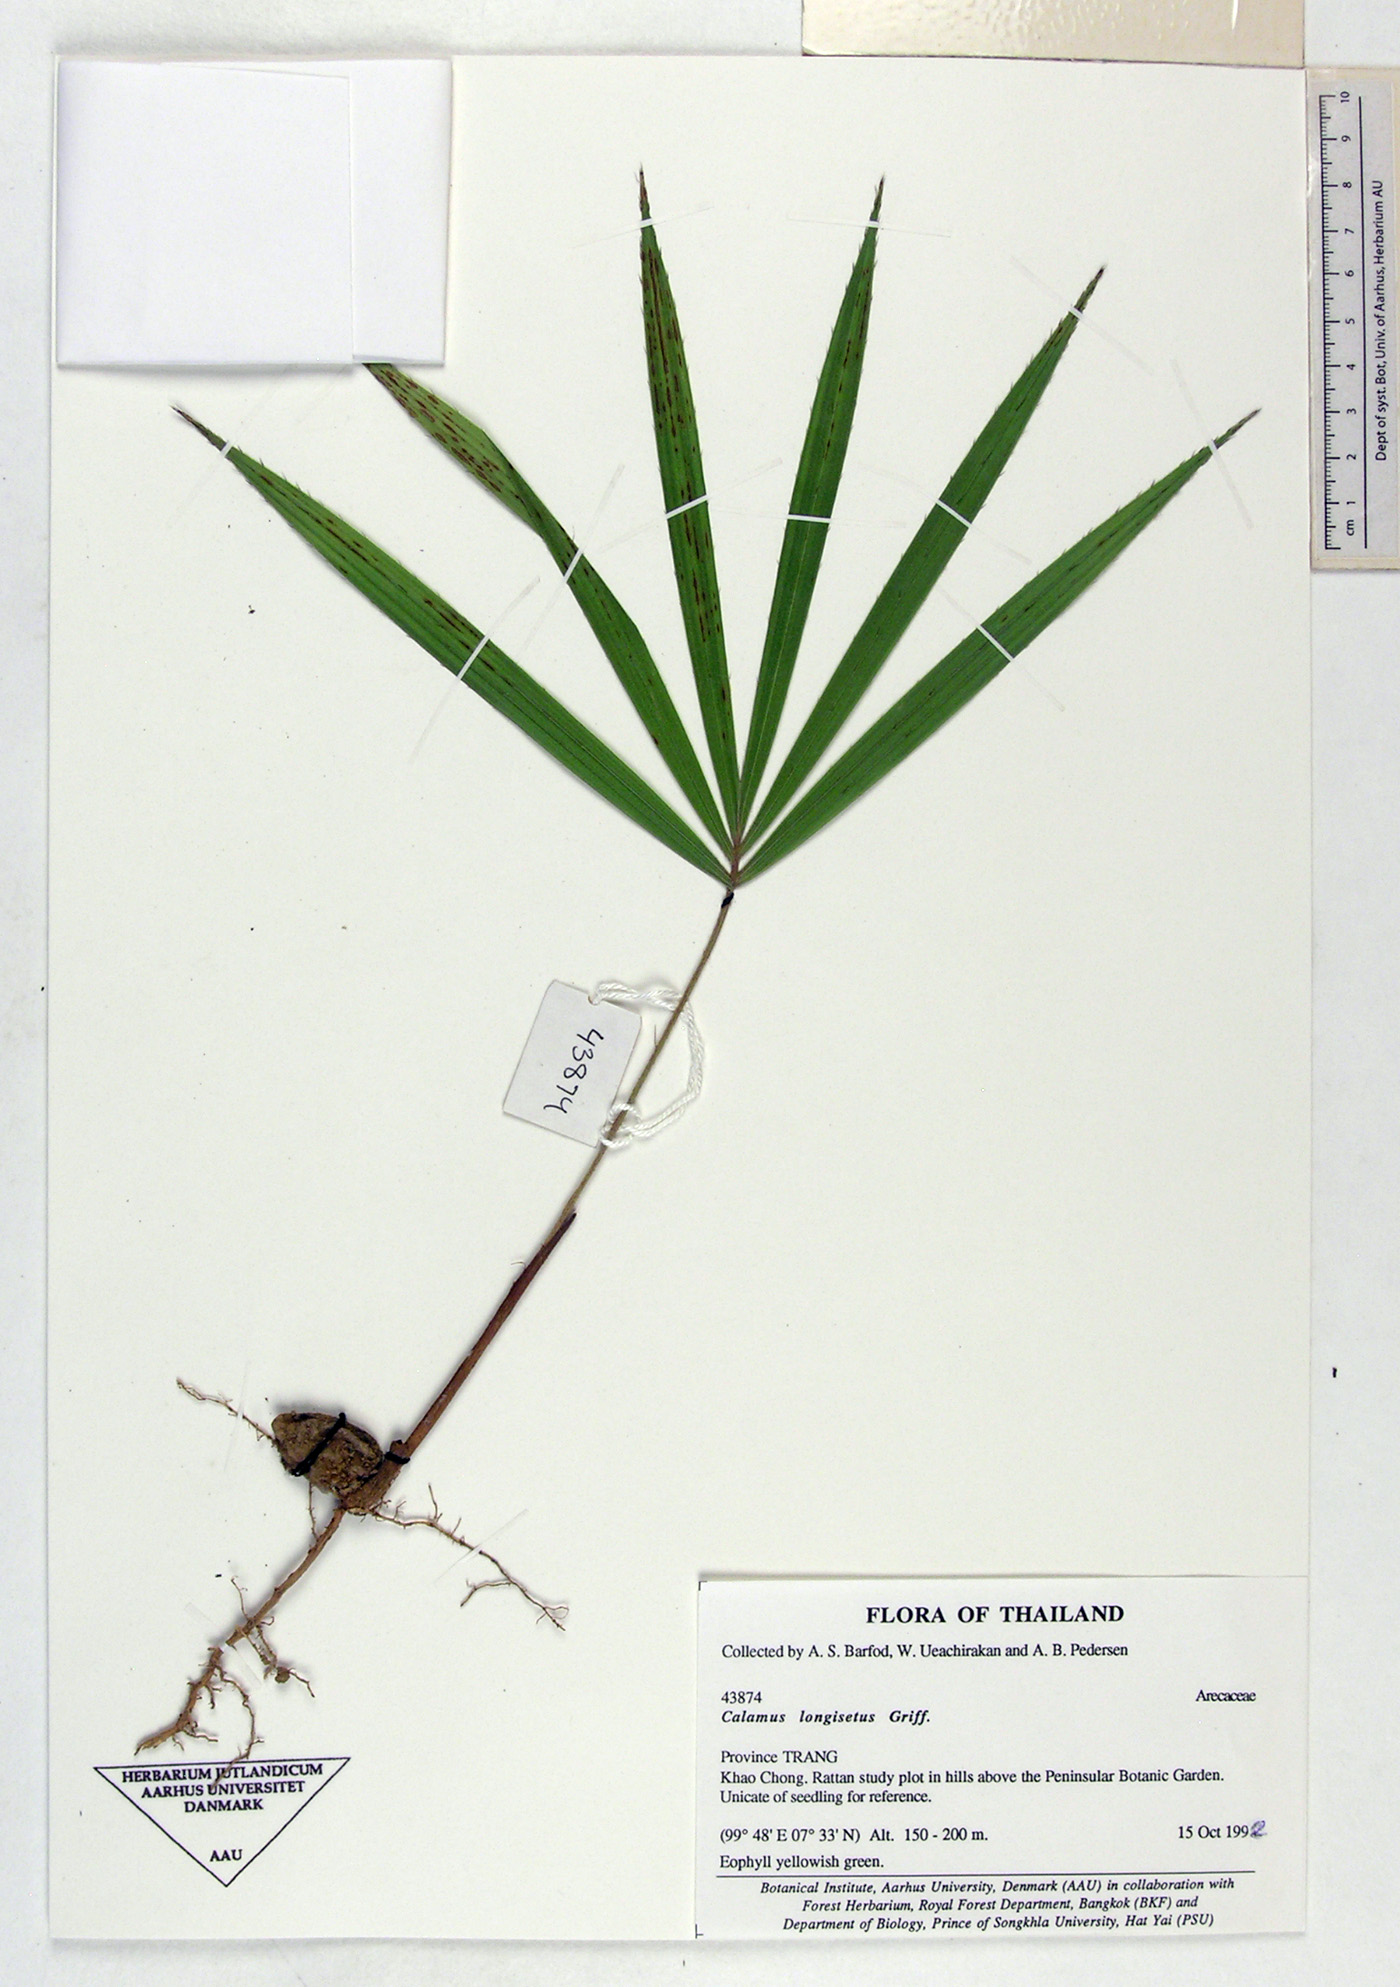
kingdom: Plantae
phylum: Tracheophyta
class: Liliopsida
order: Arecales
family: Arecaceae
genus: Calamus
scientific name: Calamus longisetus
